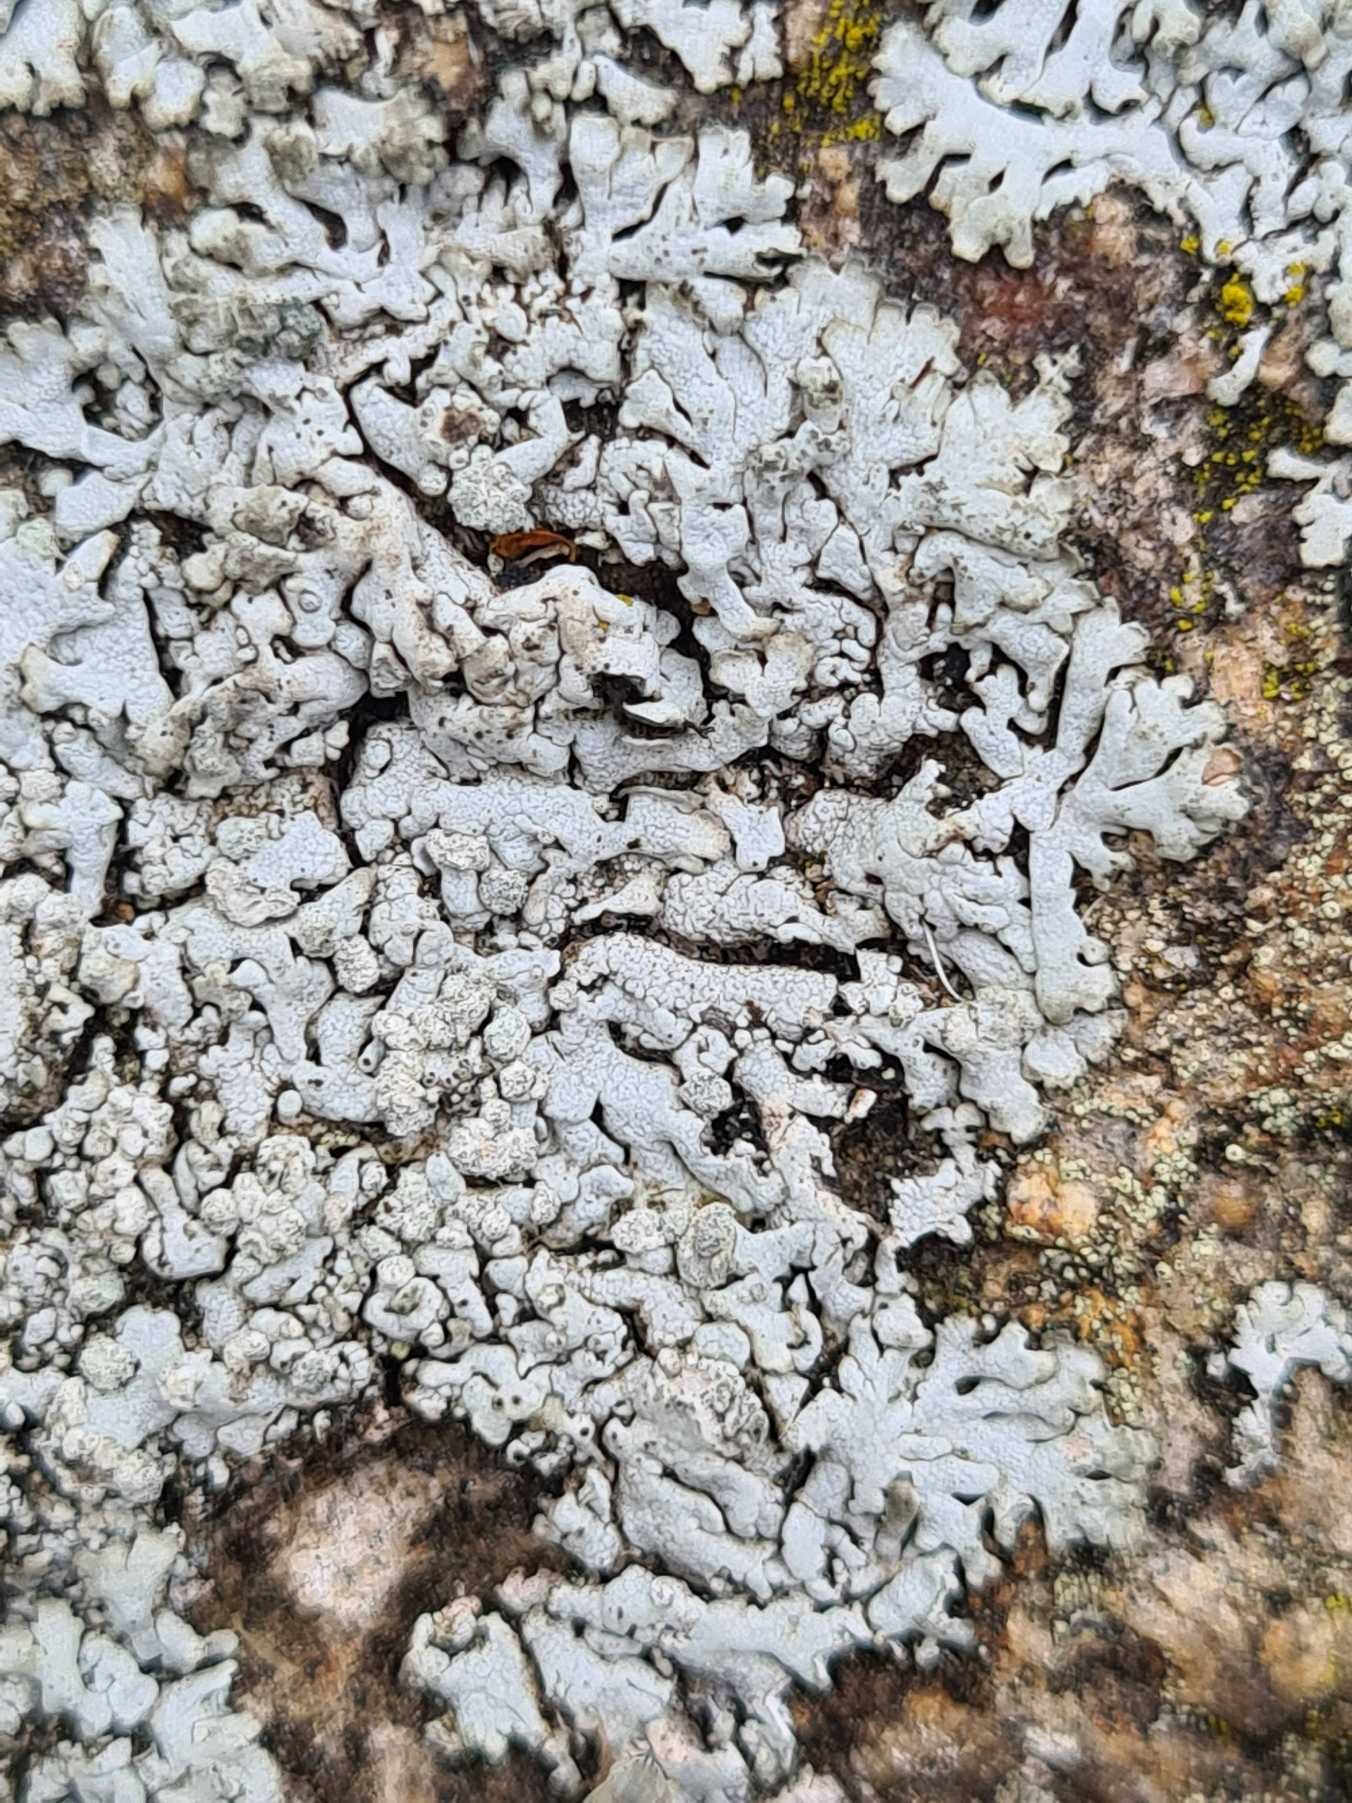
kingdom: Fungi
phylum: Ascomycota
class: Lecanoromycetes
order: Caliciales
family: Physciaceae
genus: Physcia
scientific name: Physcia caesia
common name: Blågrå rosetlav
